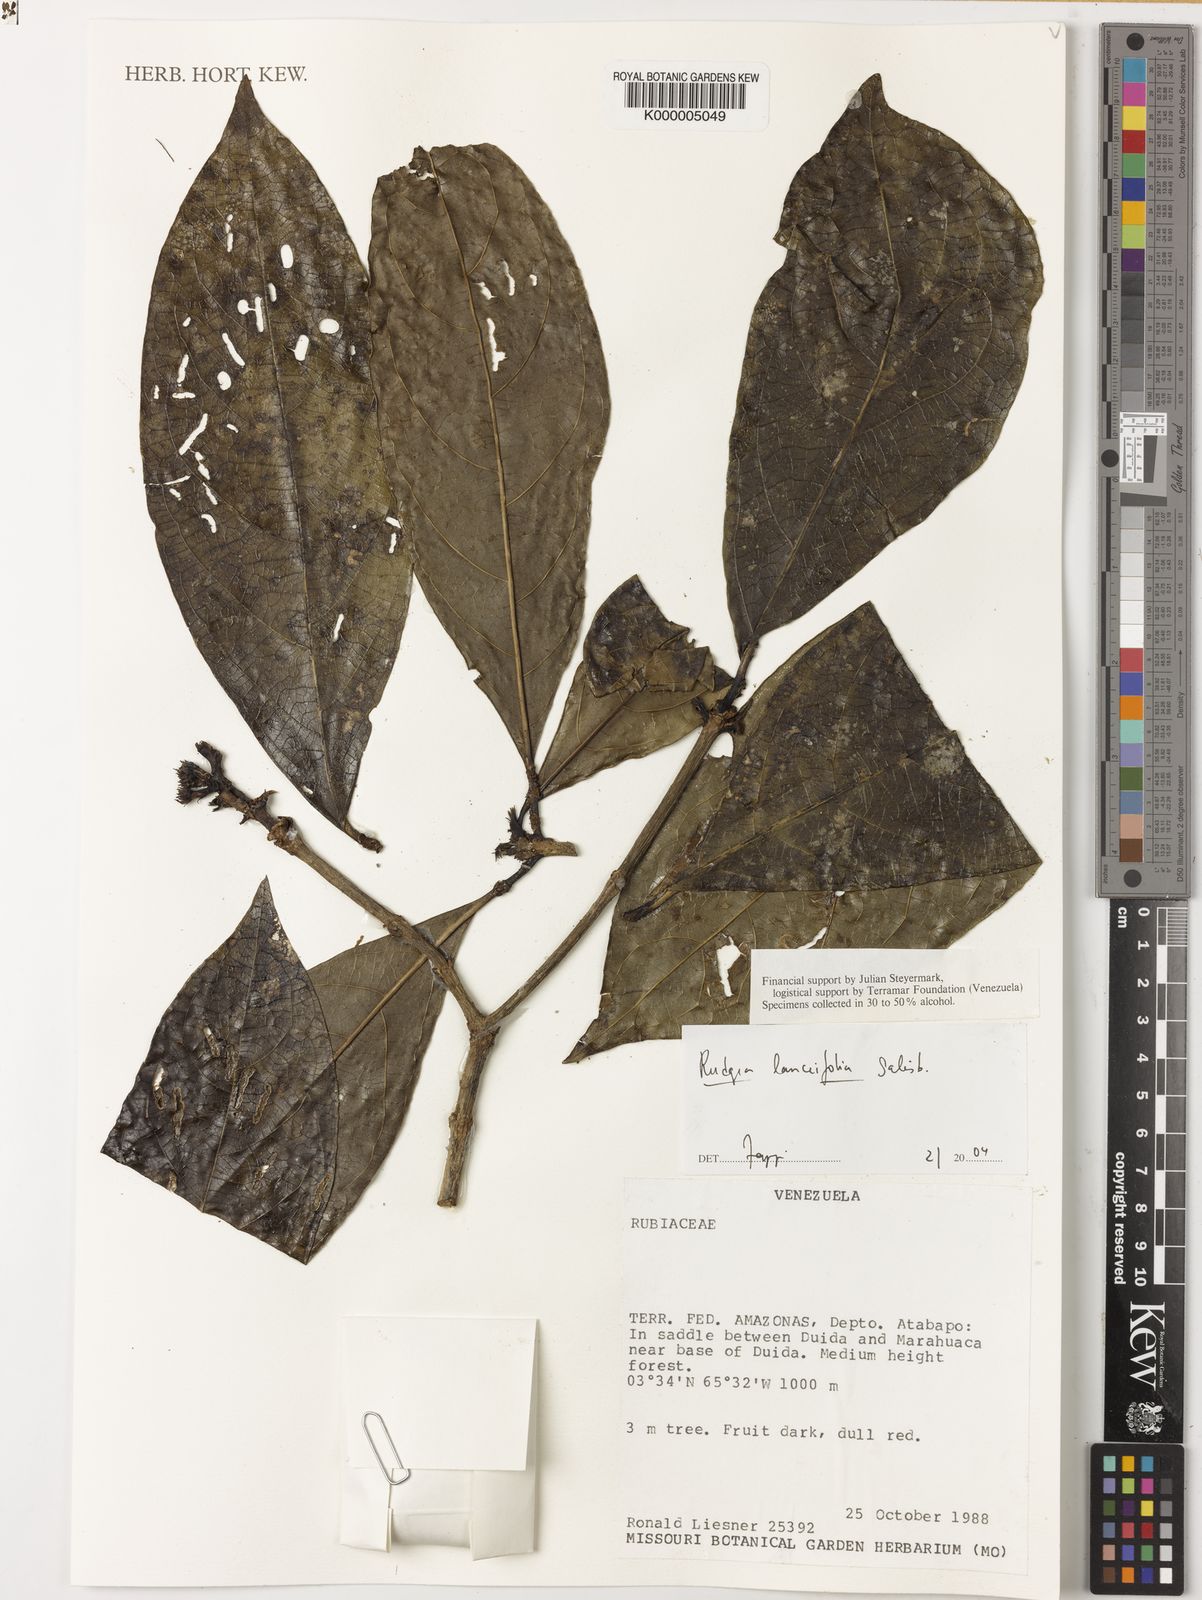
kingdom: Plantae
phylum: Tracheophyta
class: Magnoliopsida
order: Gentianales
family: Rubiaceae
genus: Rudgea
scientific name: Rudgea lanceifolia
